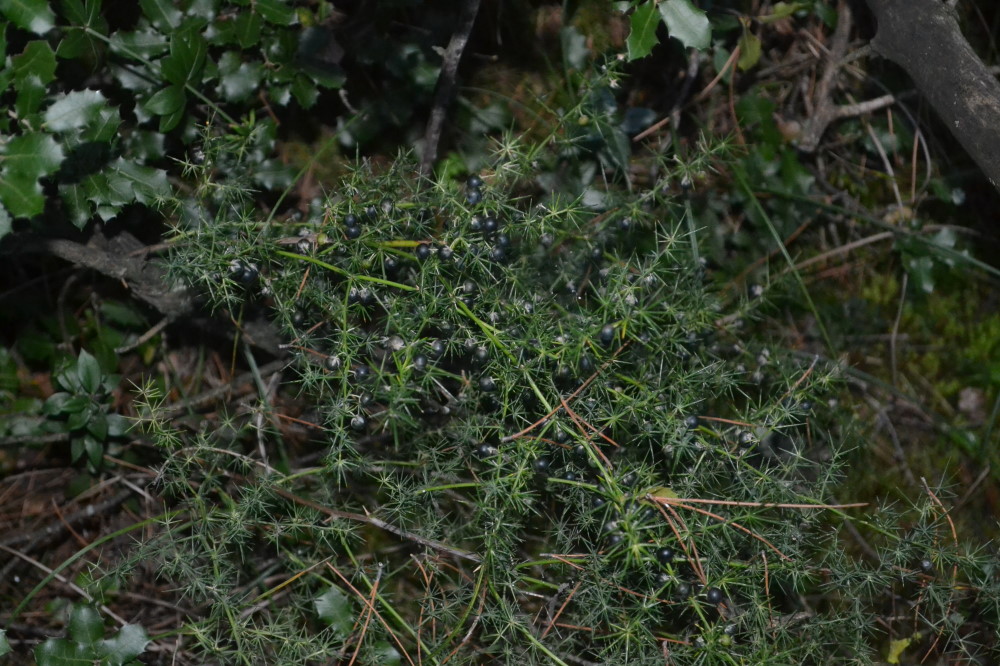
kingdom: Plantae
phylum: Tracheophyta
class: Liliopsida
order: Asparagales
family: Asparagaceae
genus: Asparagus
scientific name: Asparagus acutifolius
